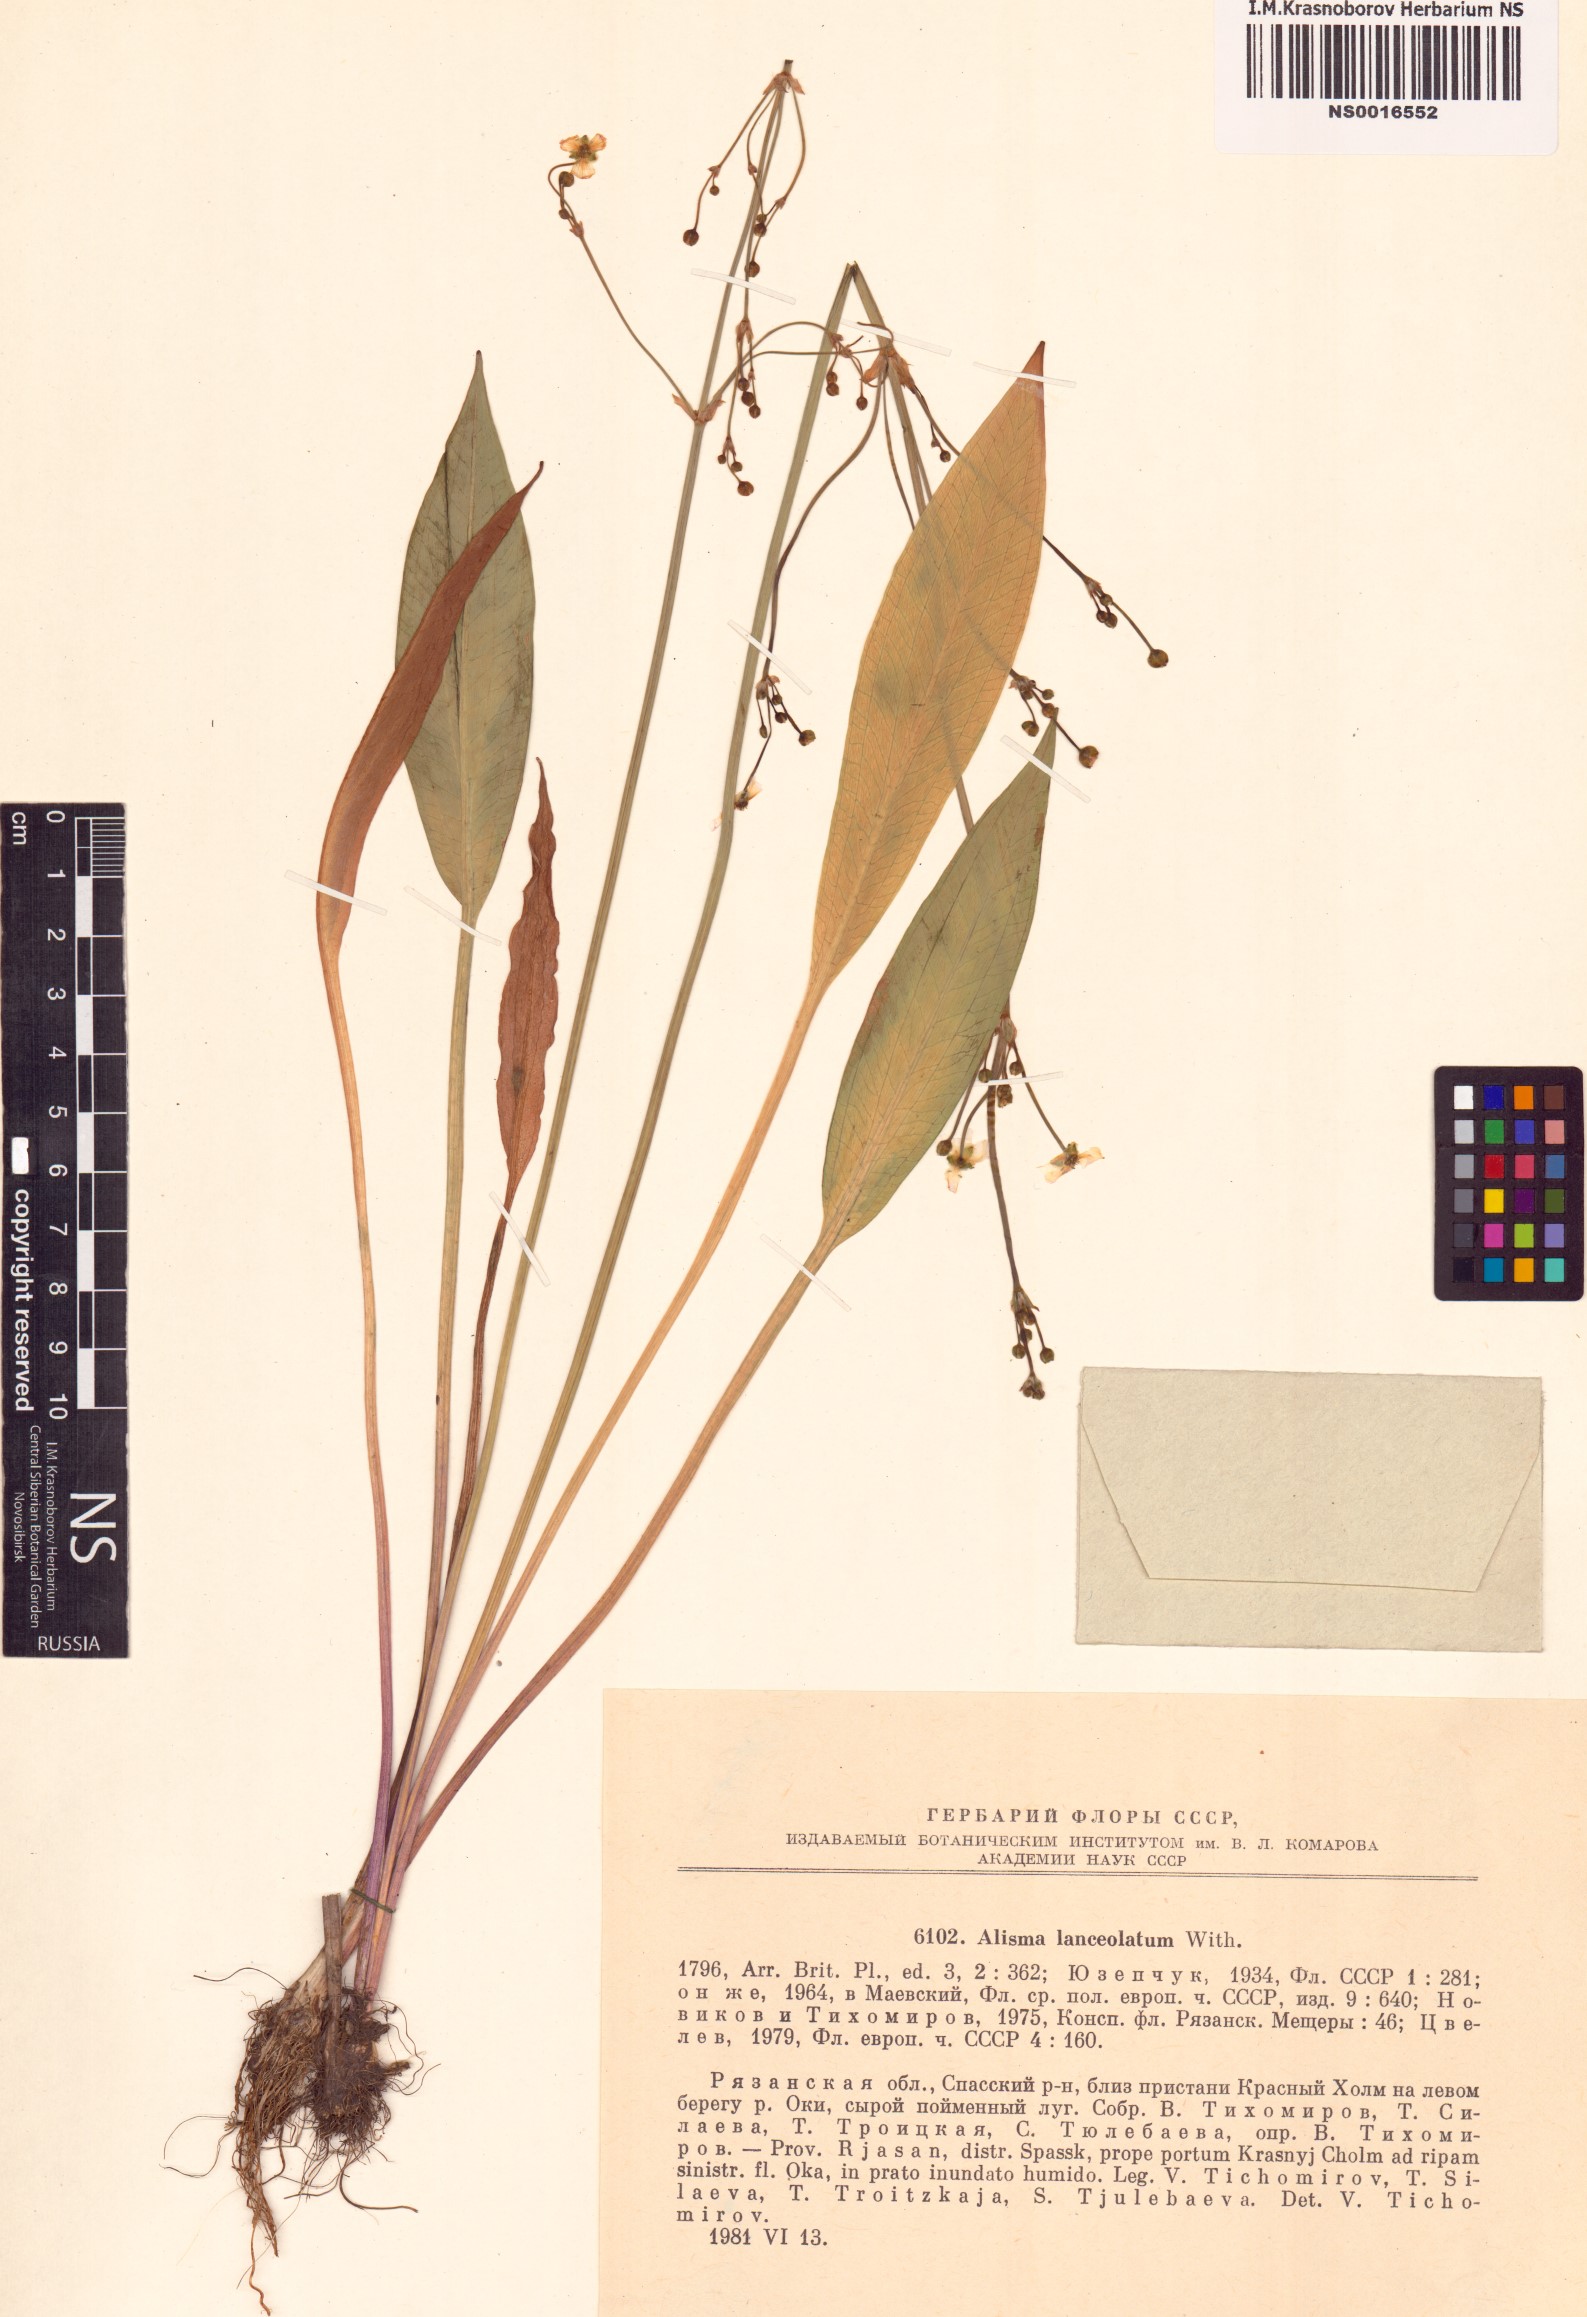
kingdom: Plantae
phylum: Tracheophyta
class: Liliopsida
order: Alismatales
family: Alismataceae
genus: Alisma
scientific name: Alisma lanceolatum
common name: Narrow-leaved water-plantain
